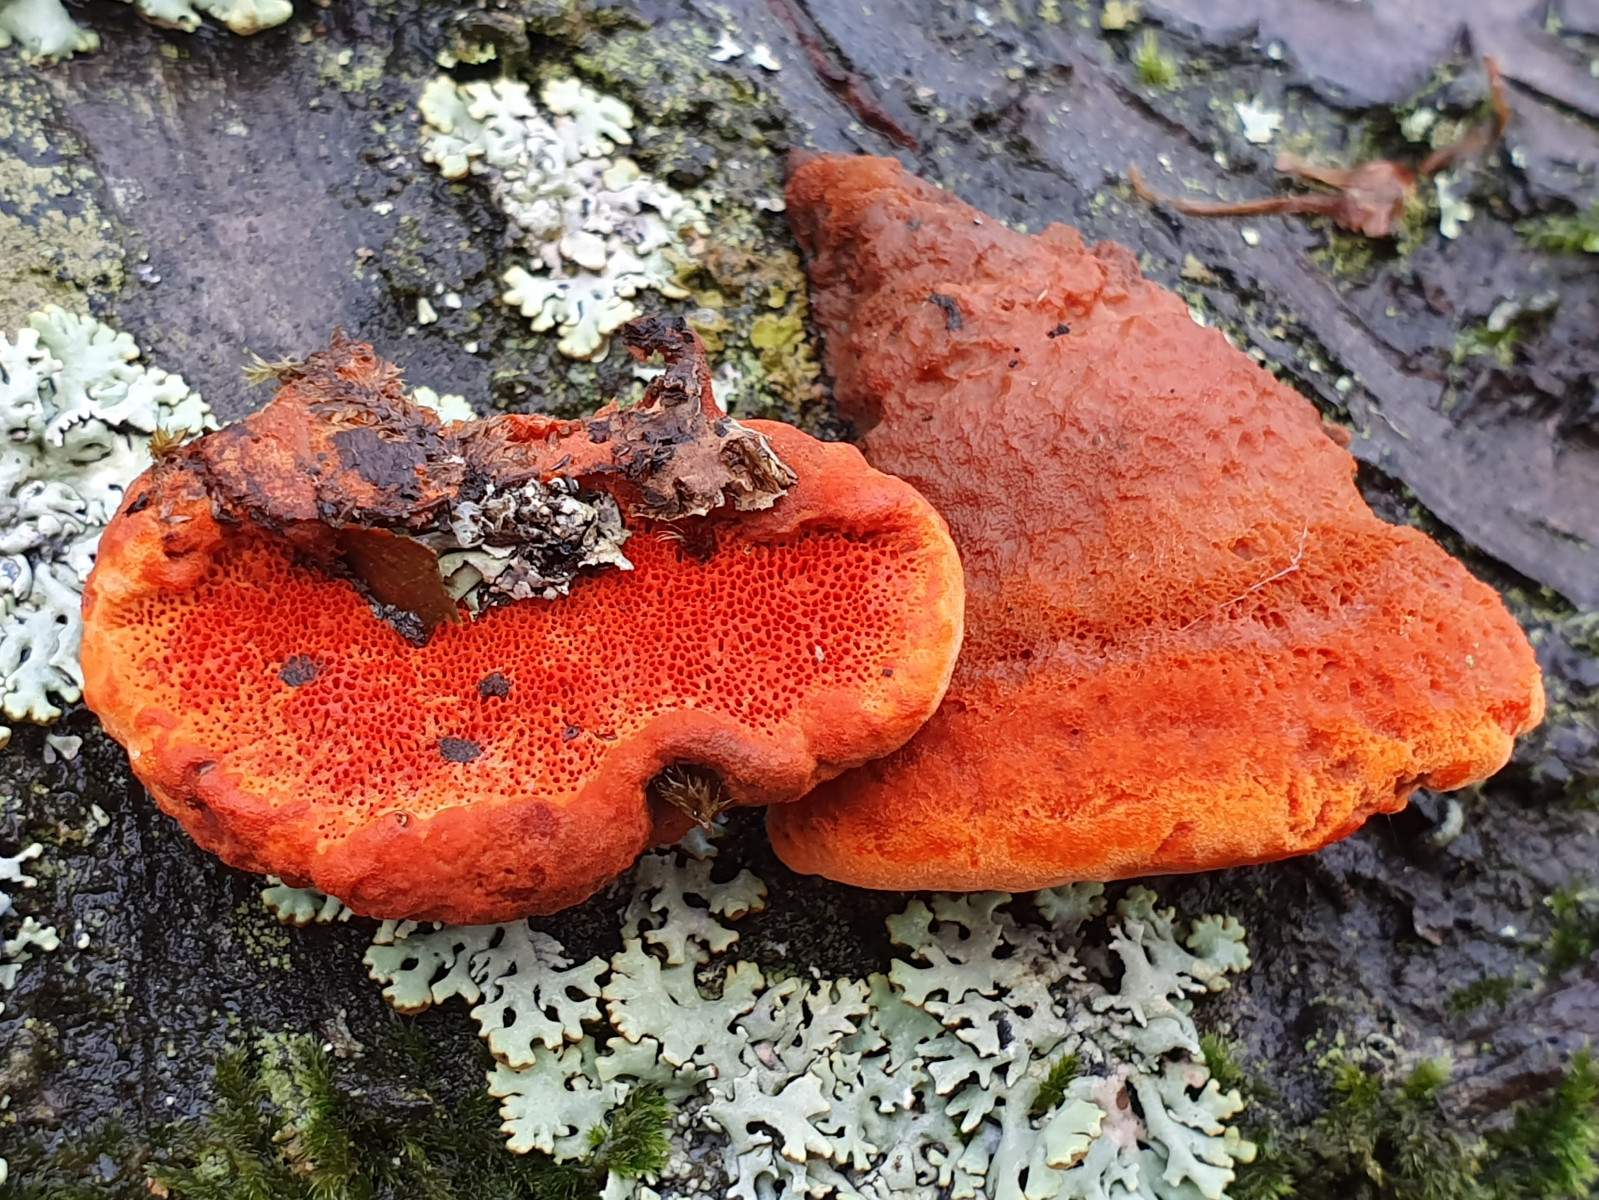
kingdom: Fungi
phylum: Basidiomycota
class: Agaricomycetes
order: Polyporales
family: Polyporaceae
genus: Trametes
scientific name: Trametes cinnabarina
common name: cinnoberporesvamp
